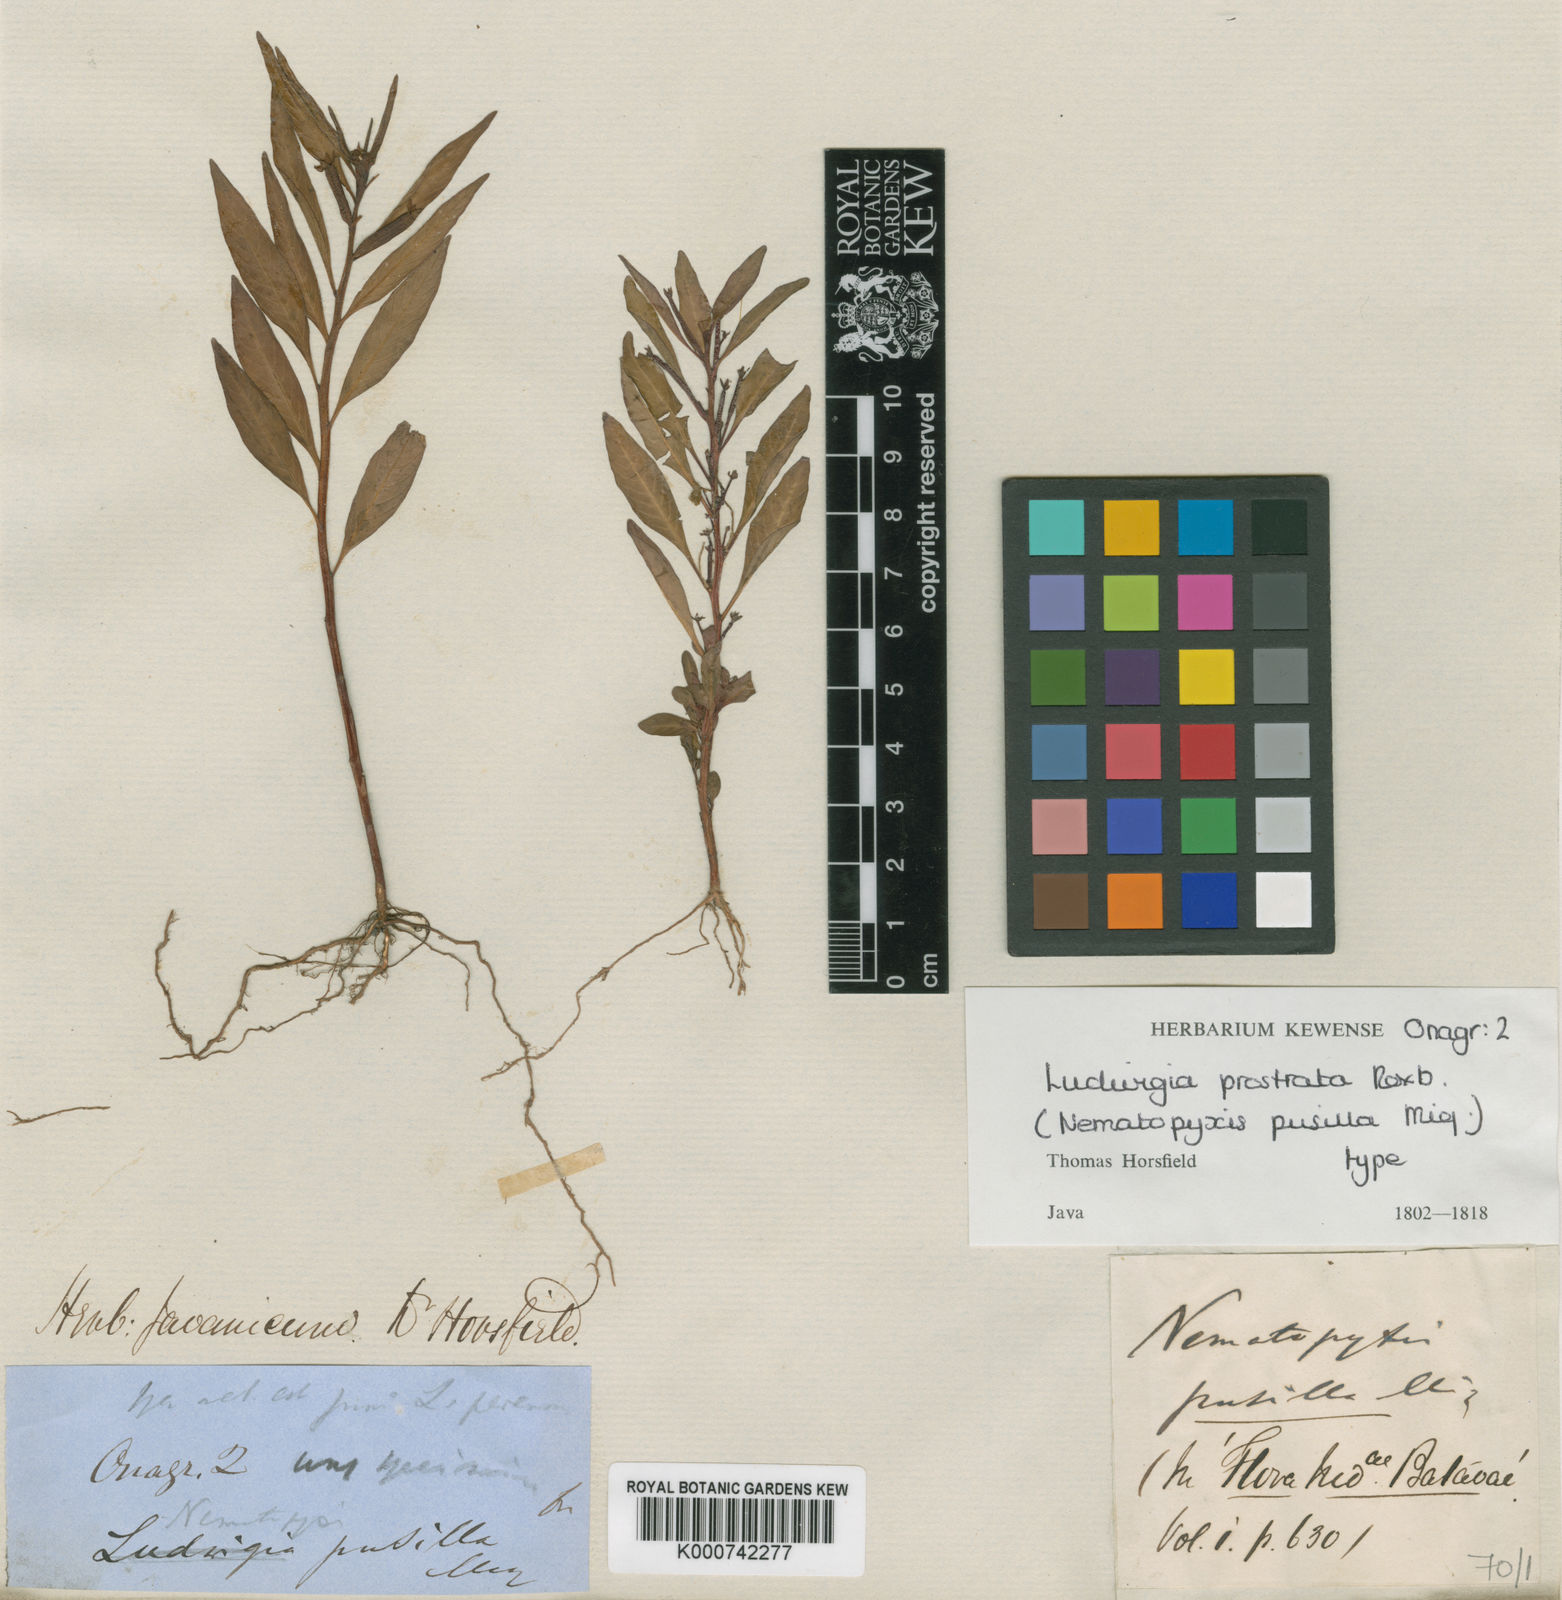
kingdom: Plantae
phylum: Tracheophyta
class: Magnoliopsida
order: Myrtales
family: Onagraceae
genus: Ludwigia
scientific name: Ludwigia perennis
